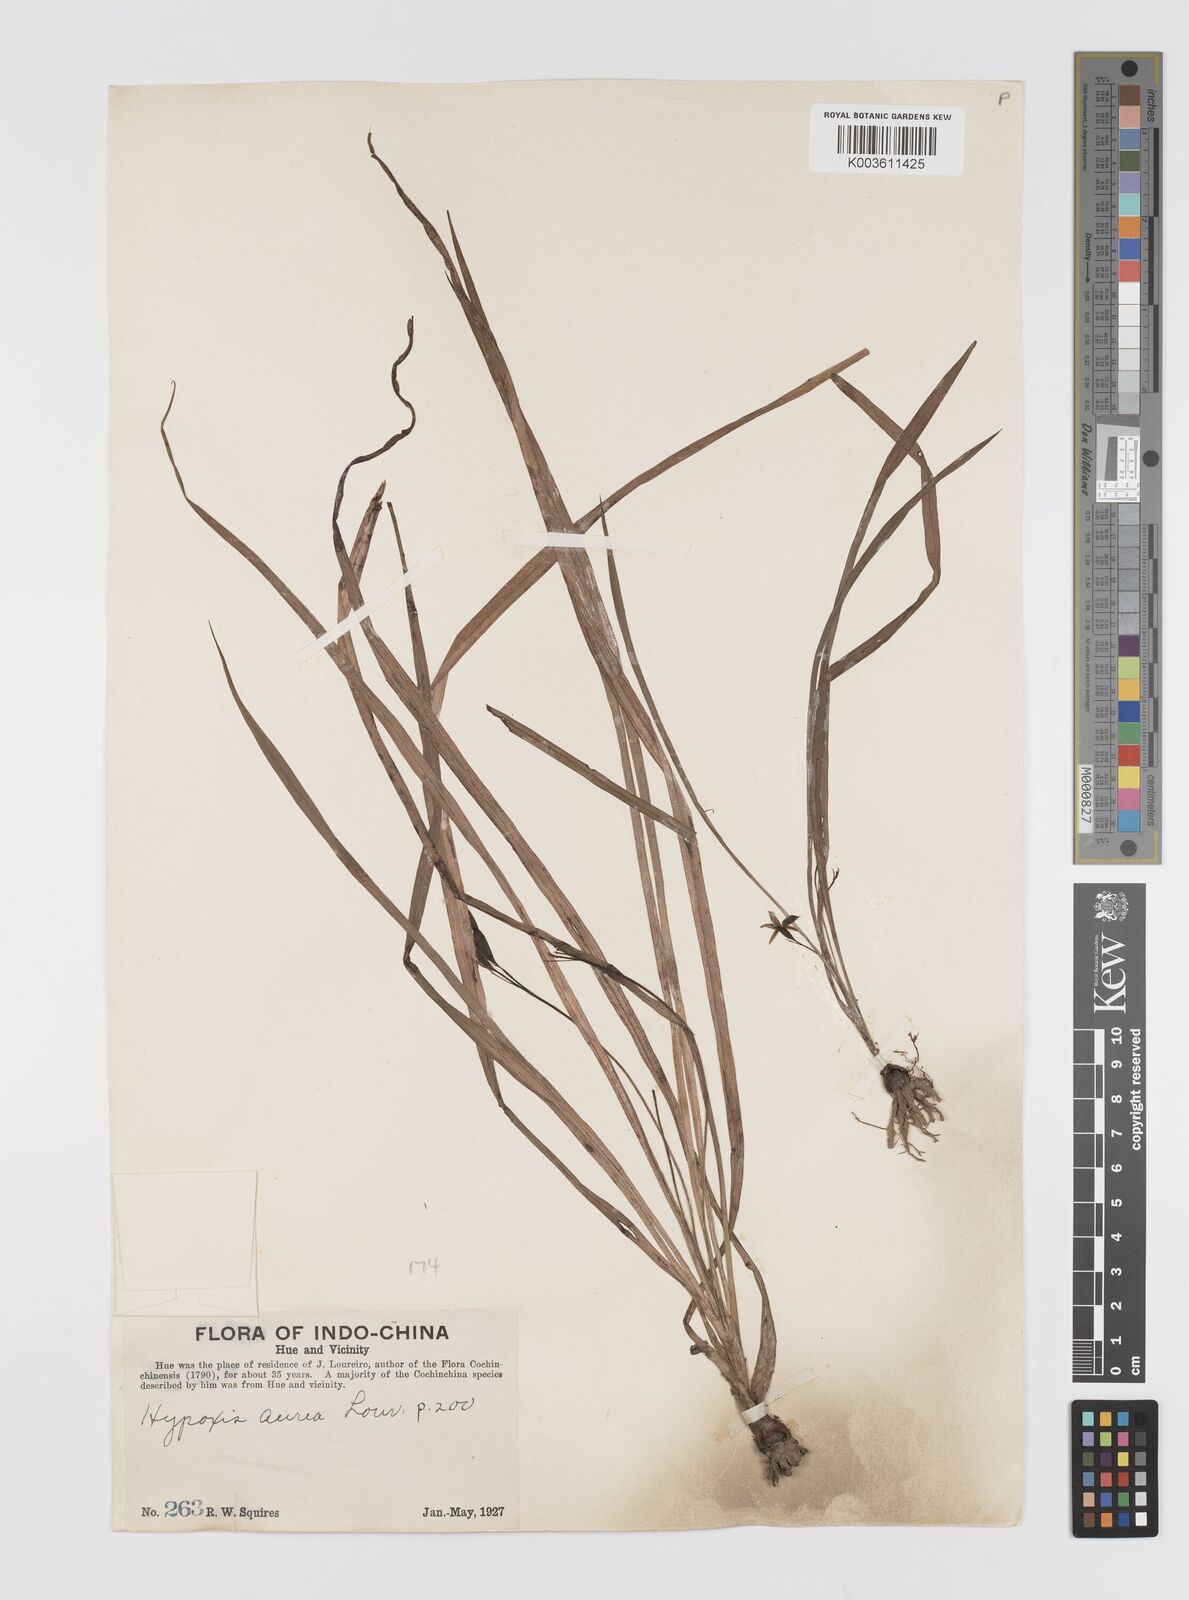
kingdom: Plantae
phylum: Tracheophyta
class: Liliopsida
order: Asparagales
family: Hypoxidaceae
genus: Hypoxis
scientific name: Hypoxis aurea
